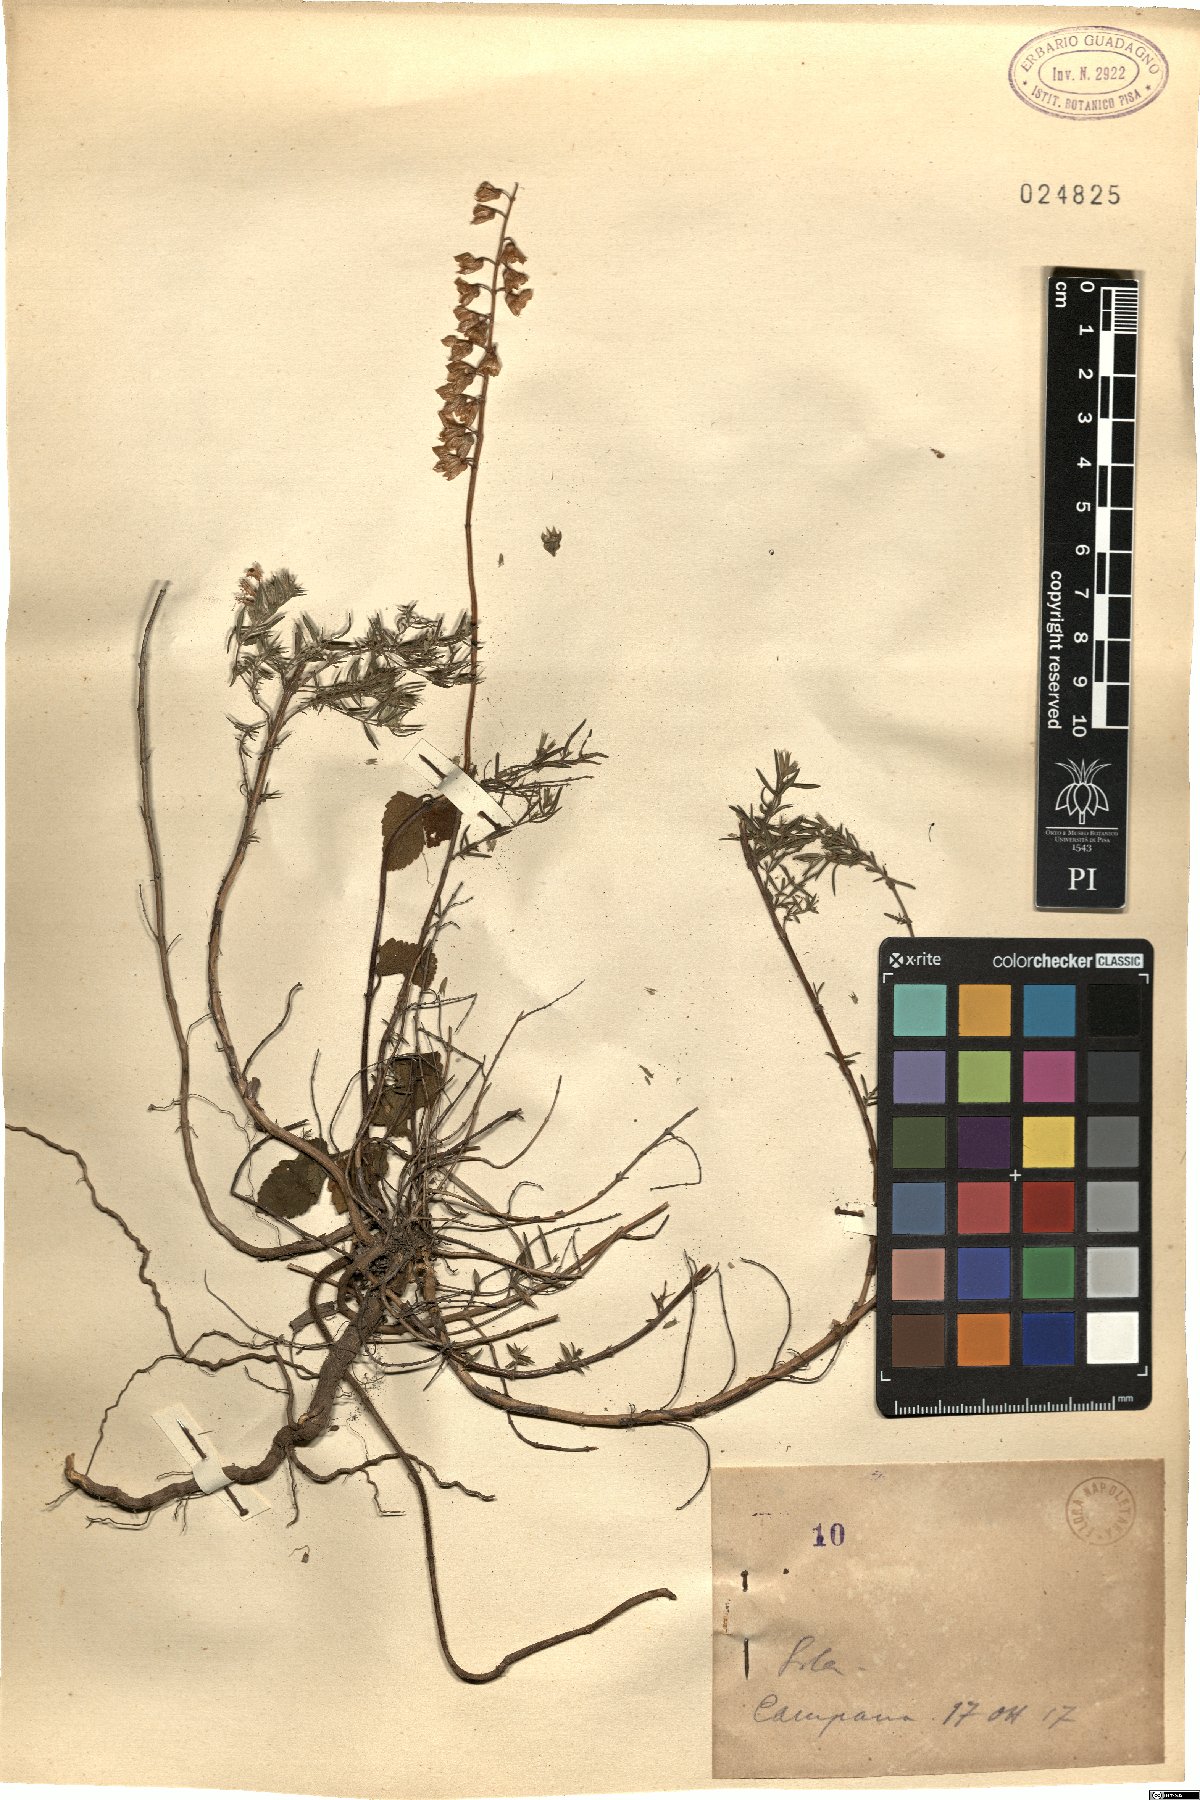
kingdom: Plantae
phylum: Tracheophyta
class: Magnoliopsida
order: Lamiales
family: Lamiaceae
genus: Teucrium
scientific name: Teucrium
